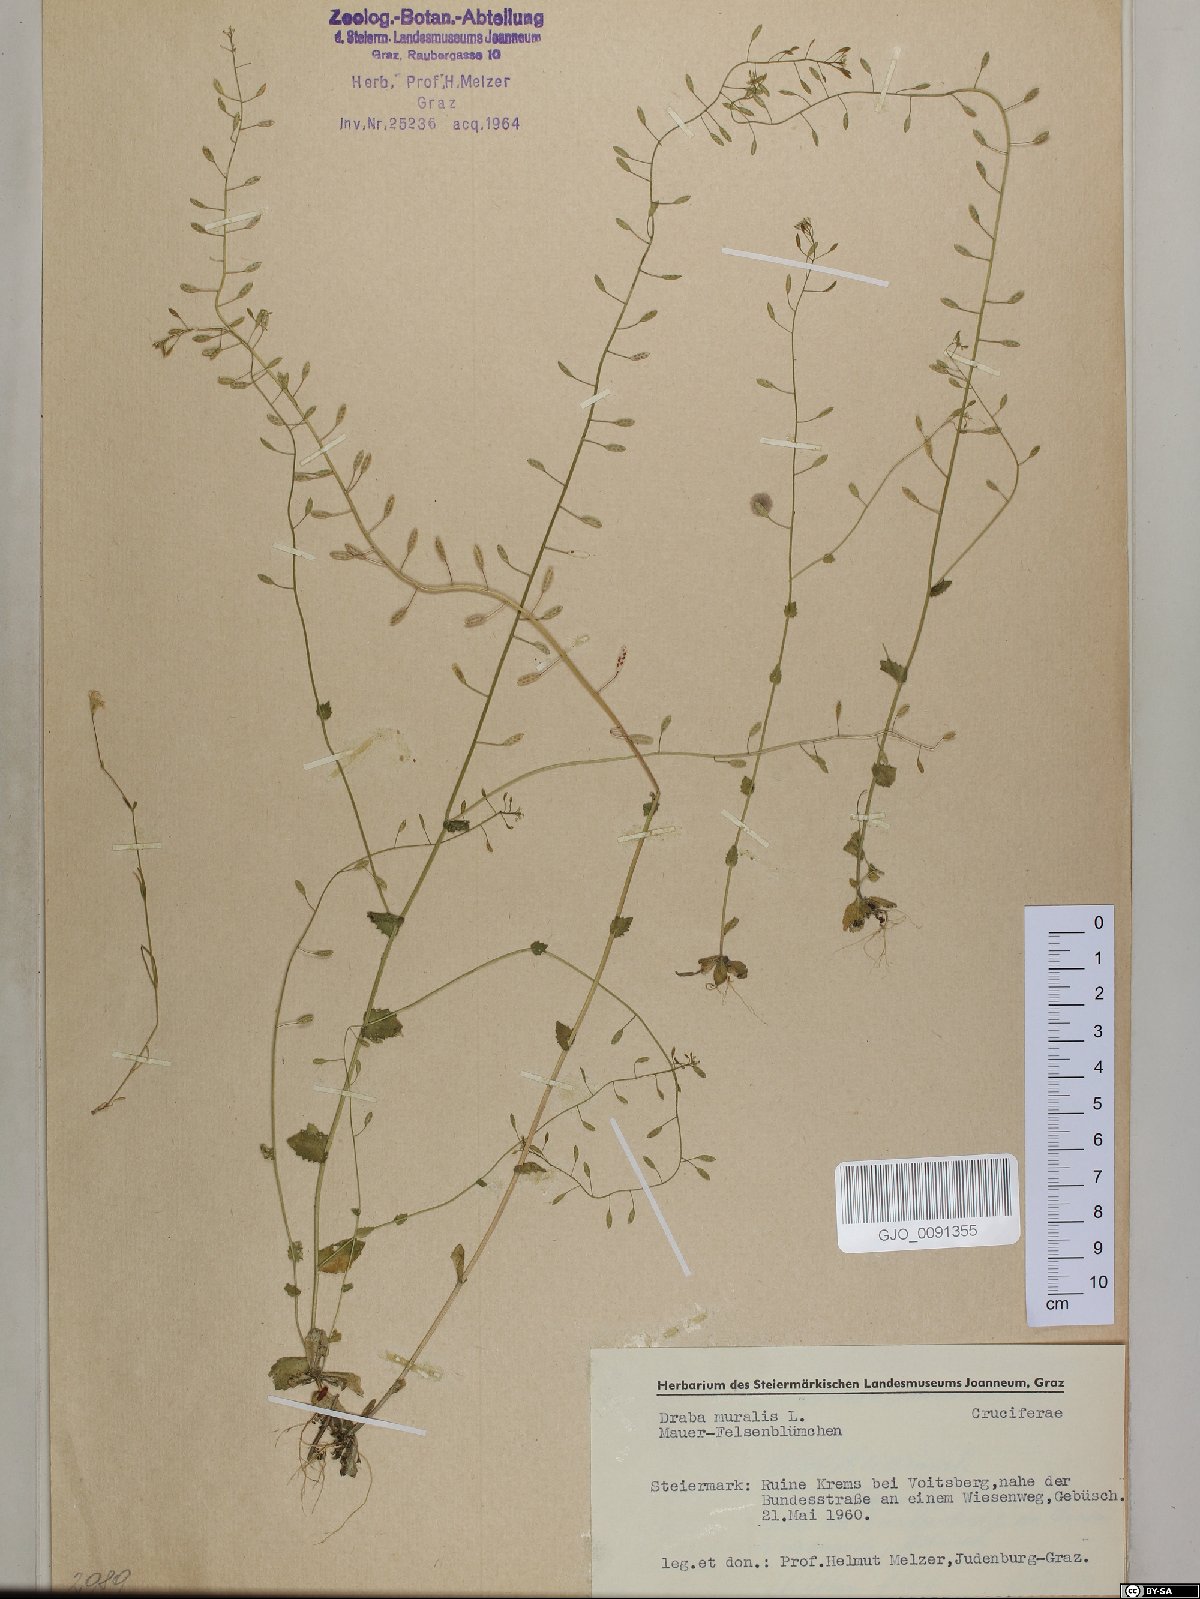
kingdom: Plantae
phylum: Tracheophyta
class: Magnoliopsida
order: Brassicales
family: Brassicaceae
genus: Drabella
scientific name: Drabella muralis
